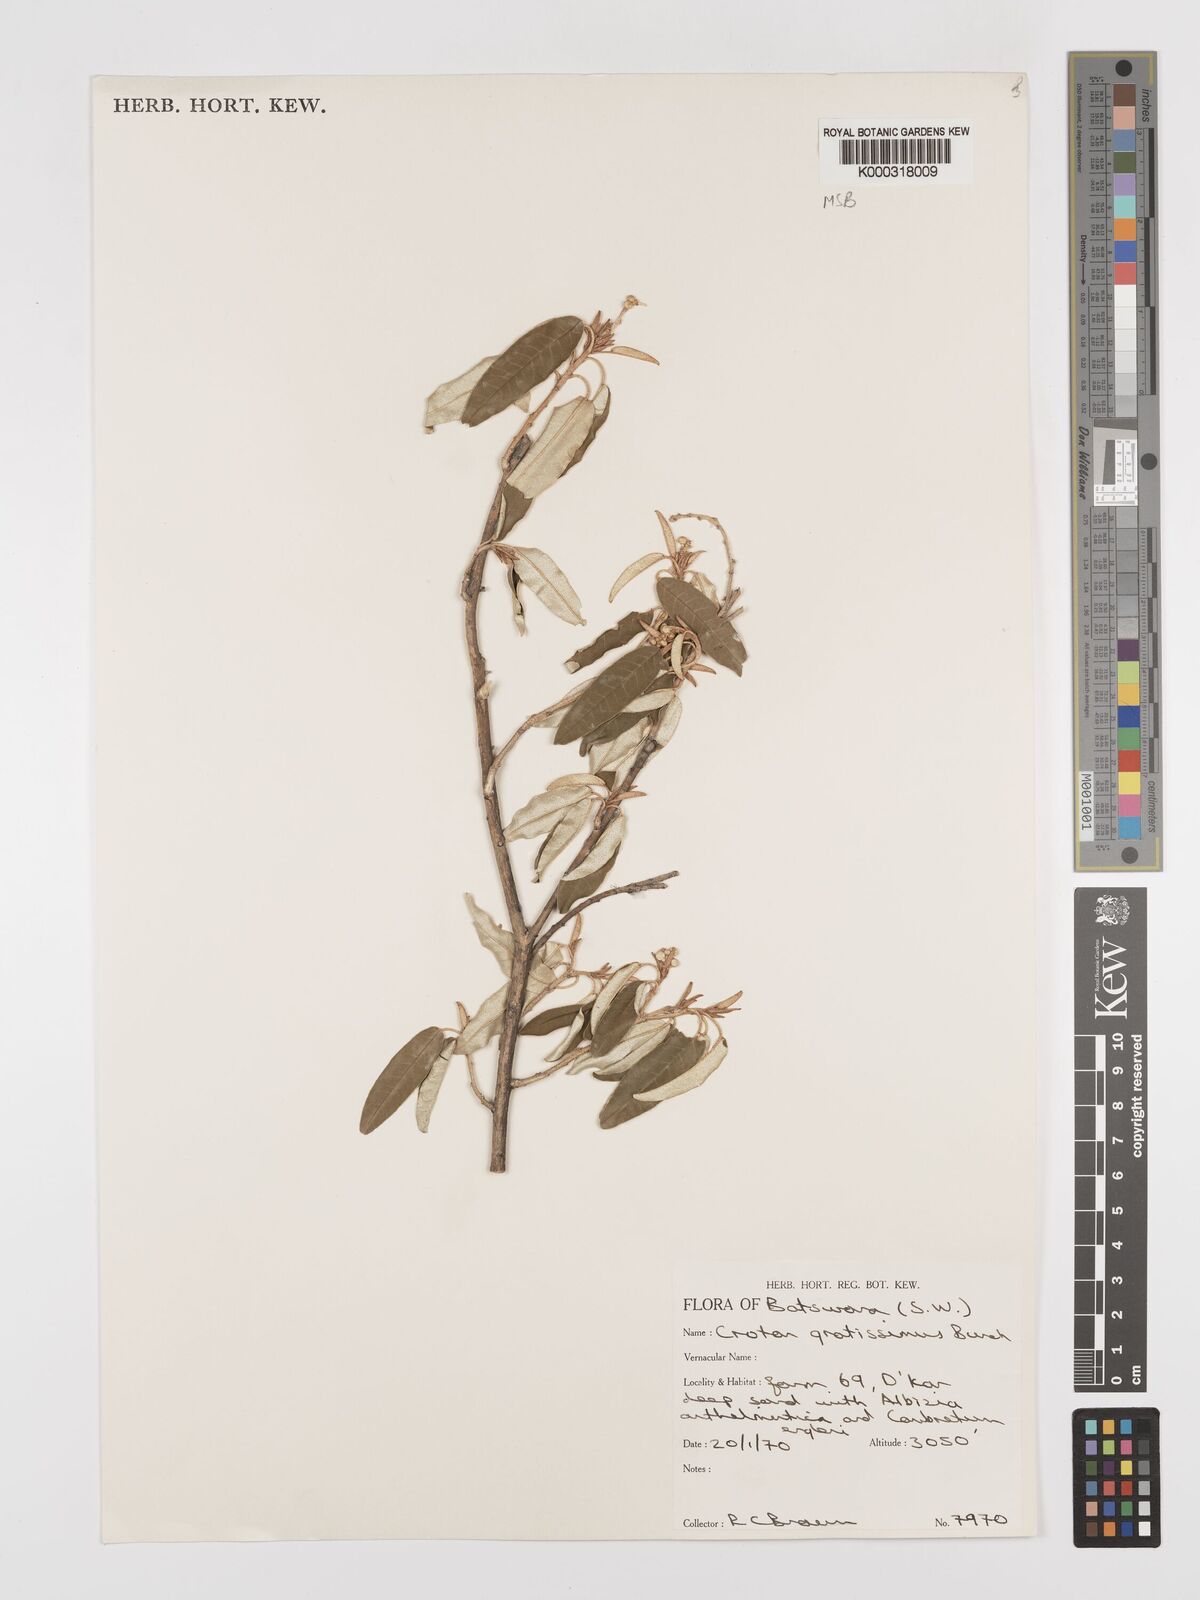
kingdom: Plantae
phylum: Tracheophyta
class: Magnoliopsida
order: Malpighiales
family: Euphorbiaceae
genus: Croton
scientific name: Croton gratissimus
